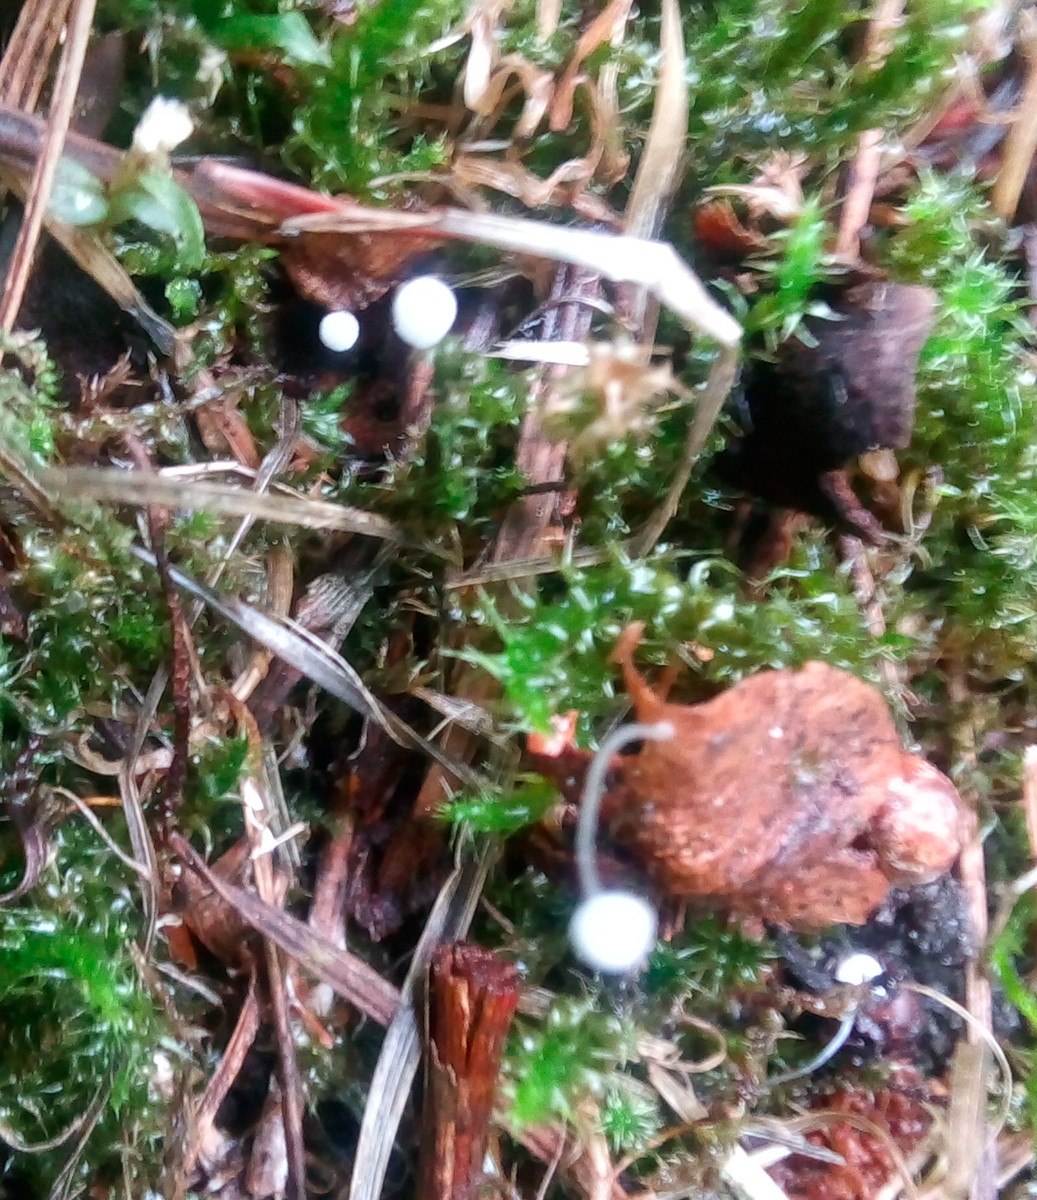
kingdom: Fungi
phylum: Basidiomycota
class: Agaricomycetes
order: Agaricales
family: Mycenaceae
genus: Mycena
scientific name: Mycena tenerrima
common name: pudret huesvamp
